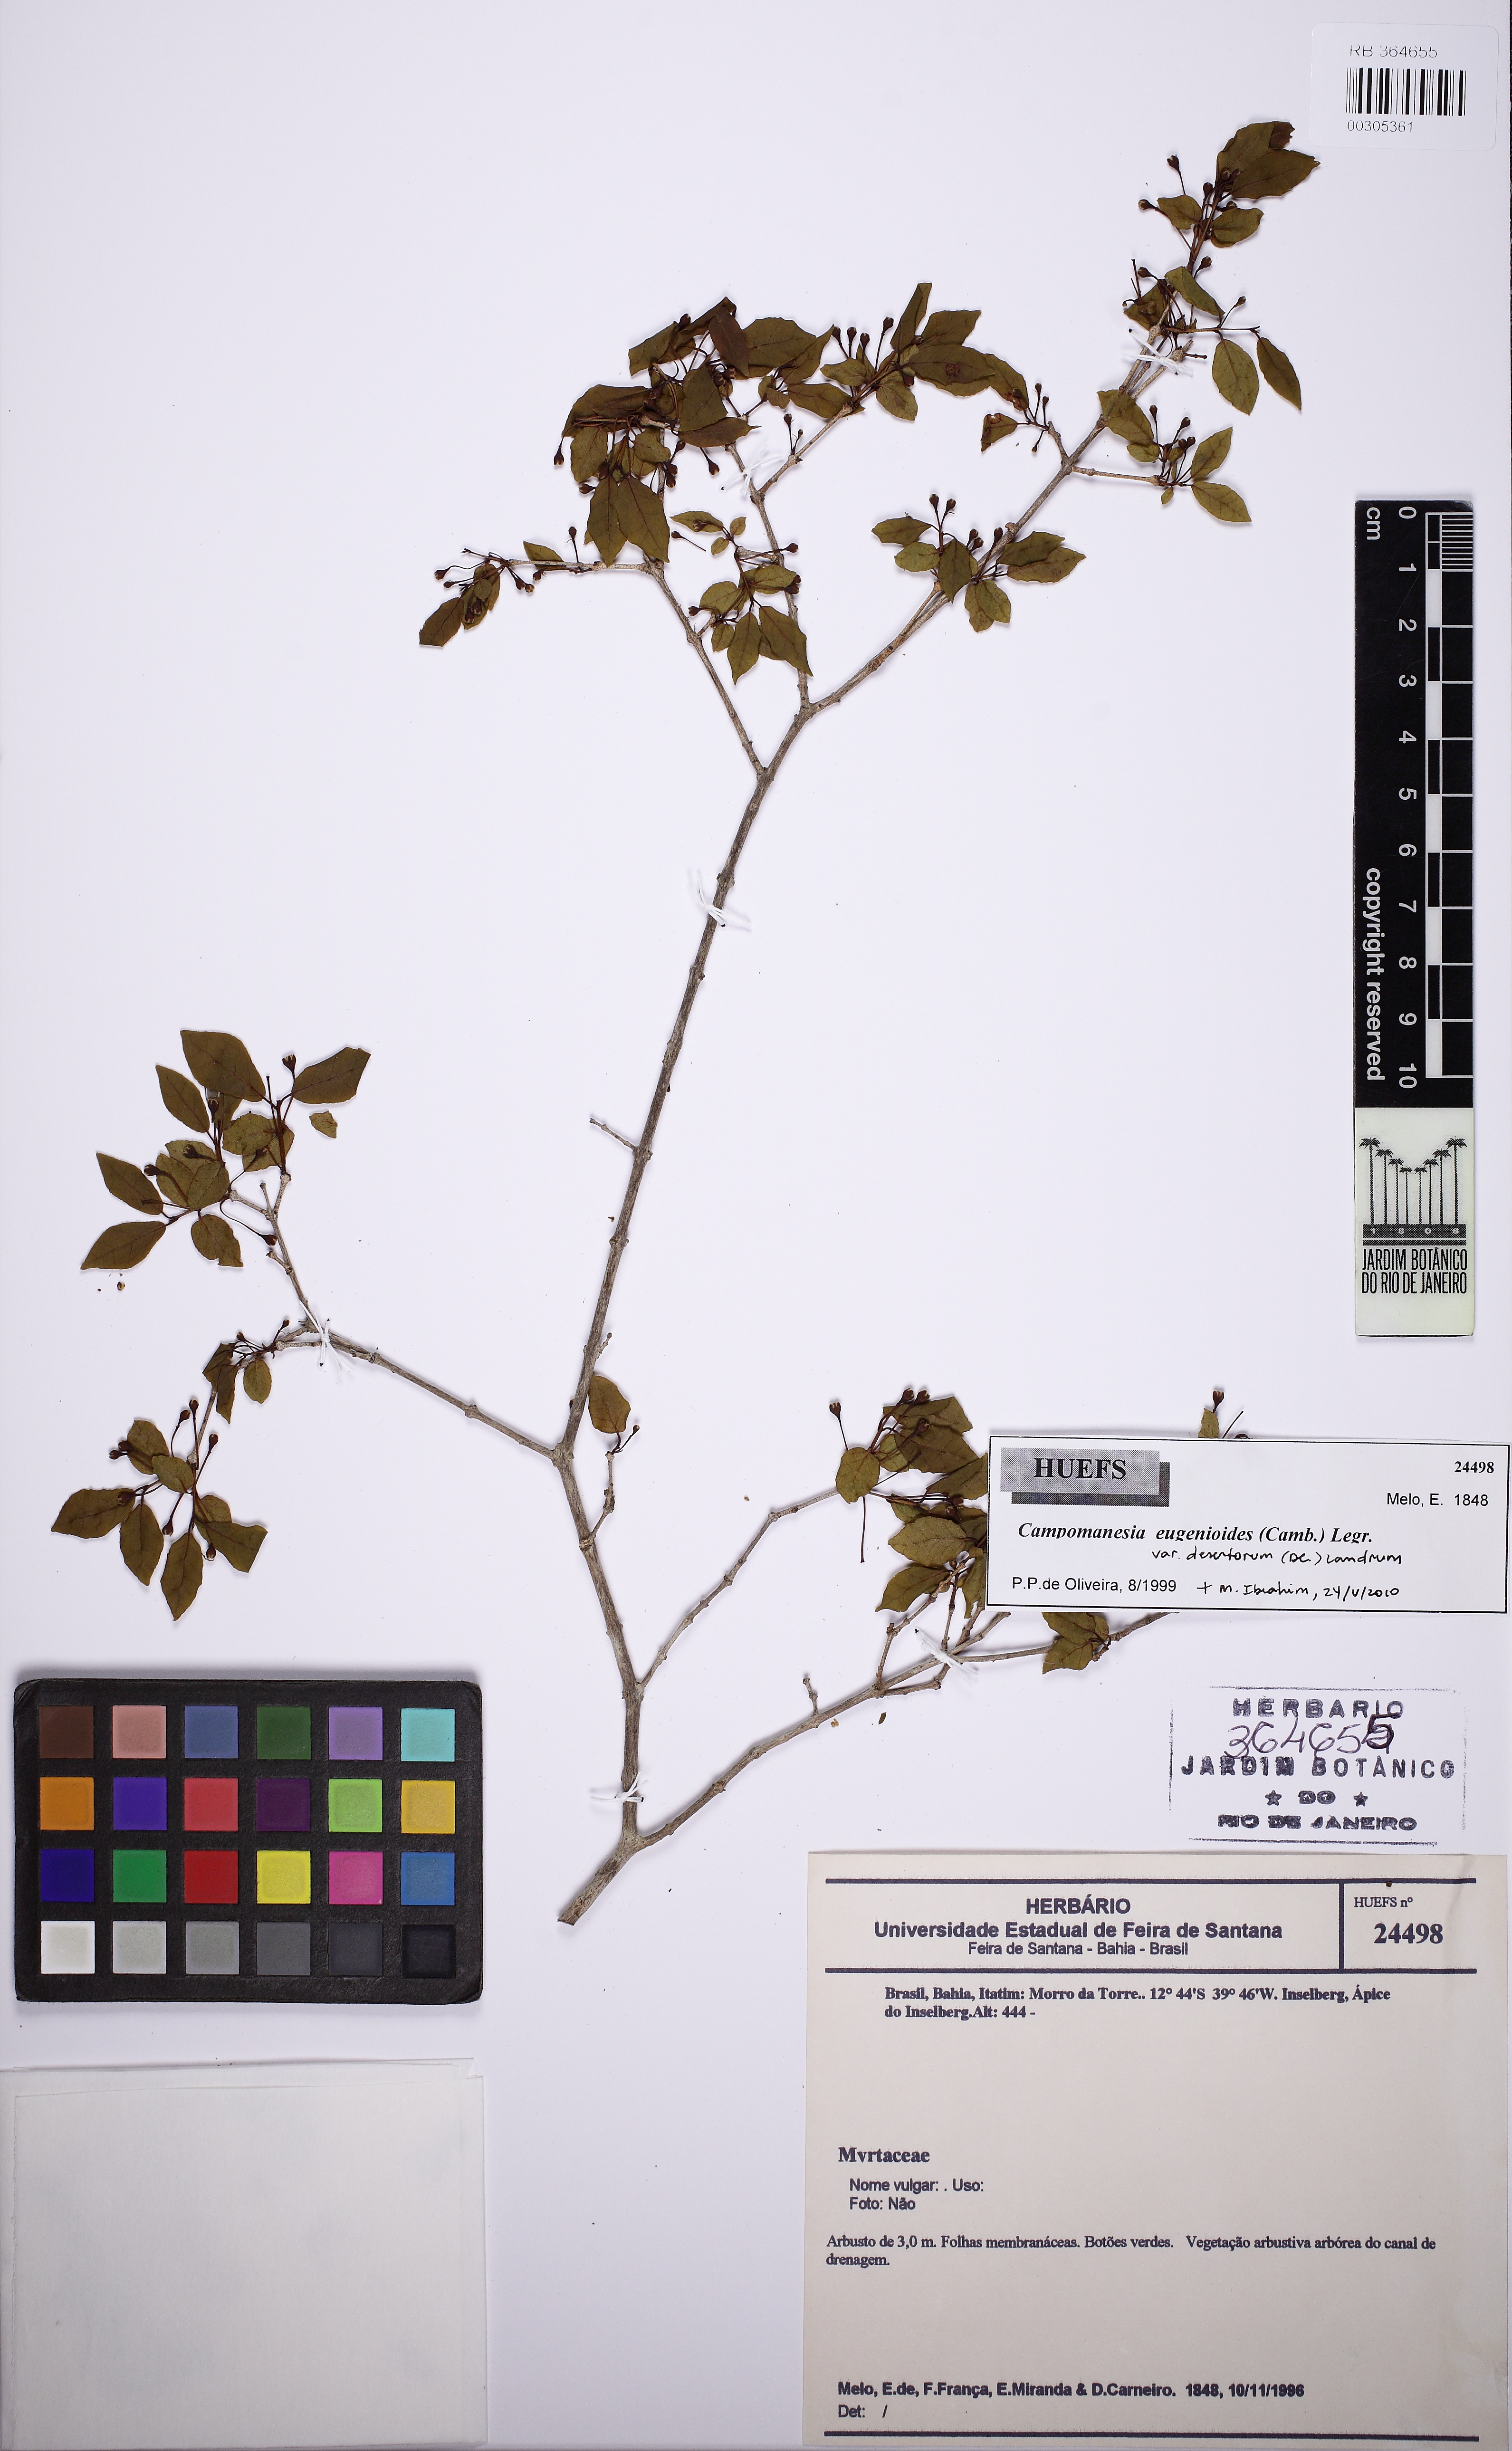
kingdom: Plantae
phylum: Tracheophyta
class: Magnoliopsida
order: Myrtales
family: Myrtaceae
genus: Campomanesia
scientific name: Campomanesia eugenioides
